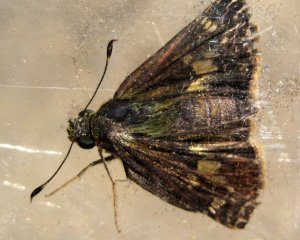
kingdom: Animalia
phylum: Arthropoda
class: Insecta
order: Lepidoptera
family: Hesperiidae
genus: Vernia
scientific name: Vernia verna
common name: Little Glassywing
